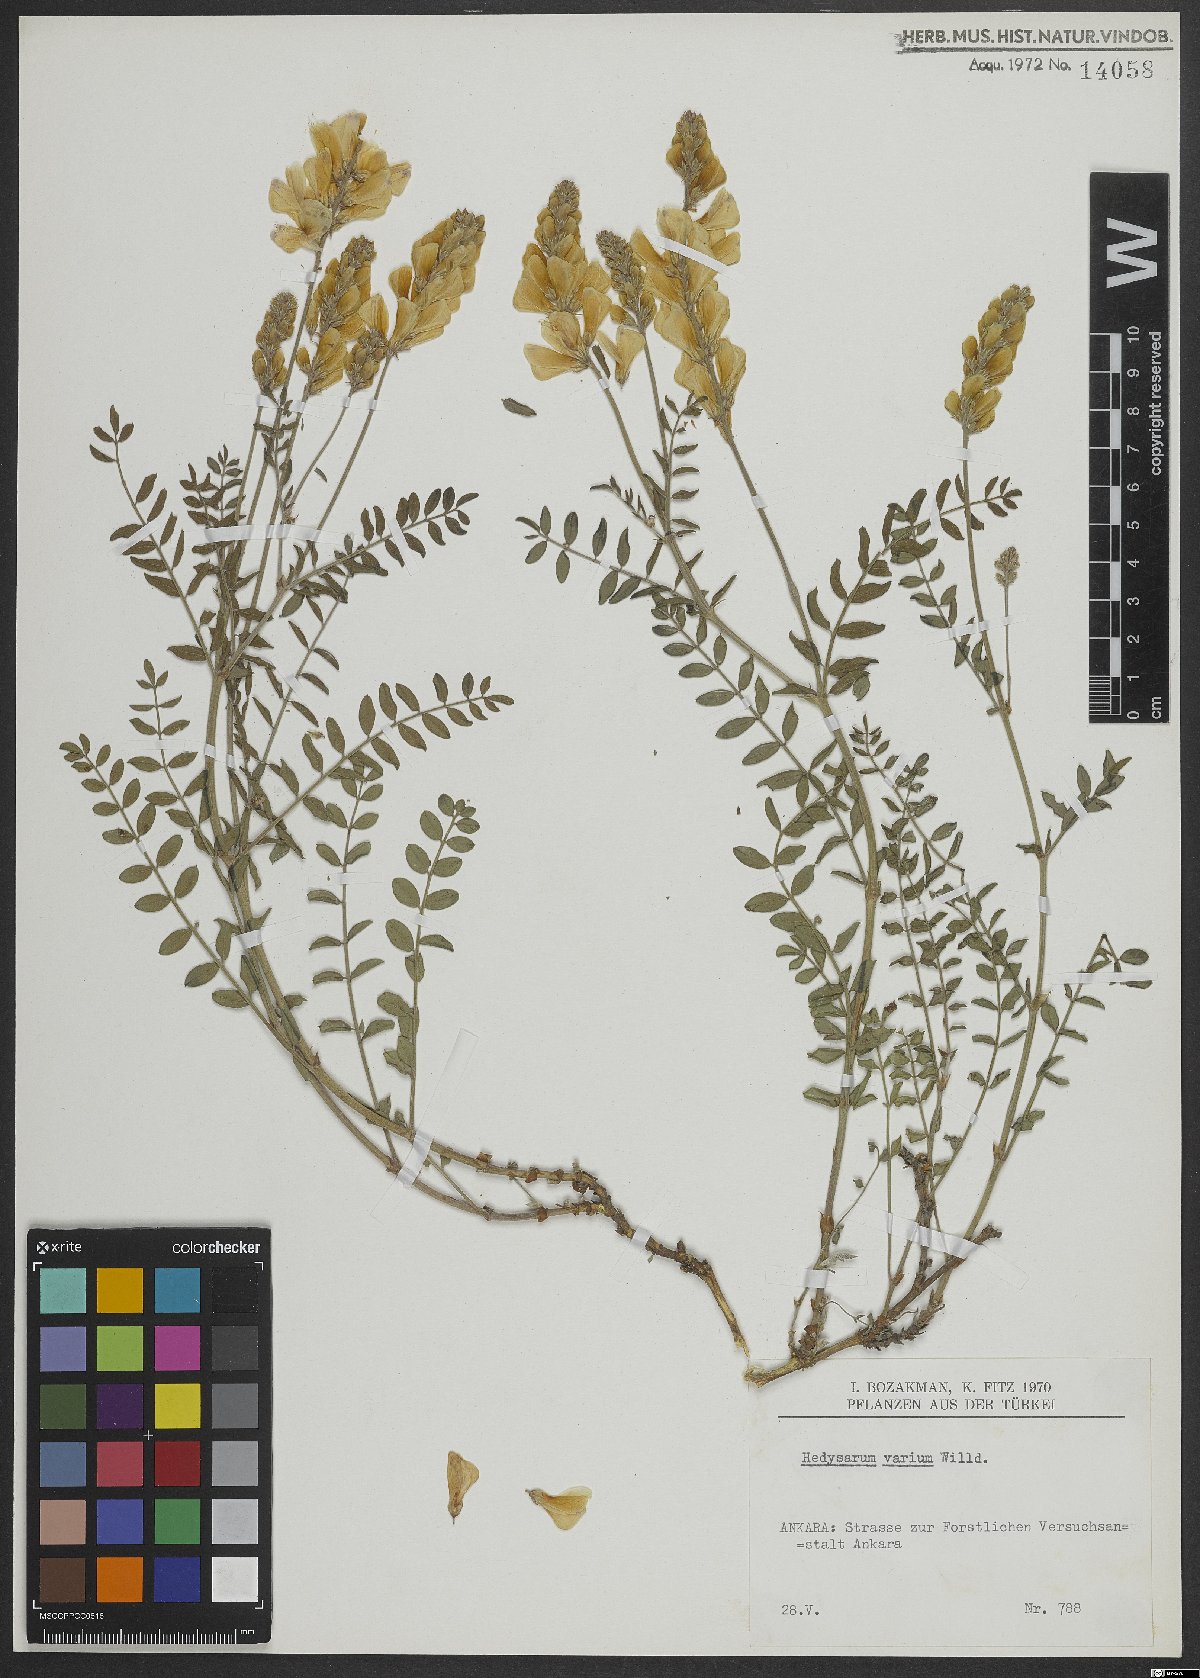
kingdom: Plantae
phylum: Tracheophyta
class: Magnoliopsida
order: Fabales
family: Fabaceae
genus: Hedysarum
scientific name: Hedysarum varium
